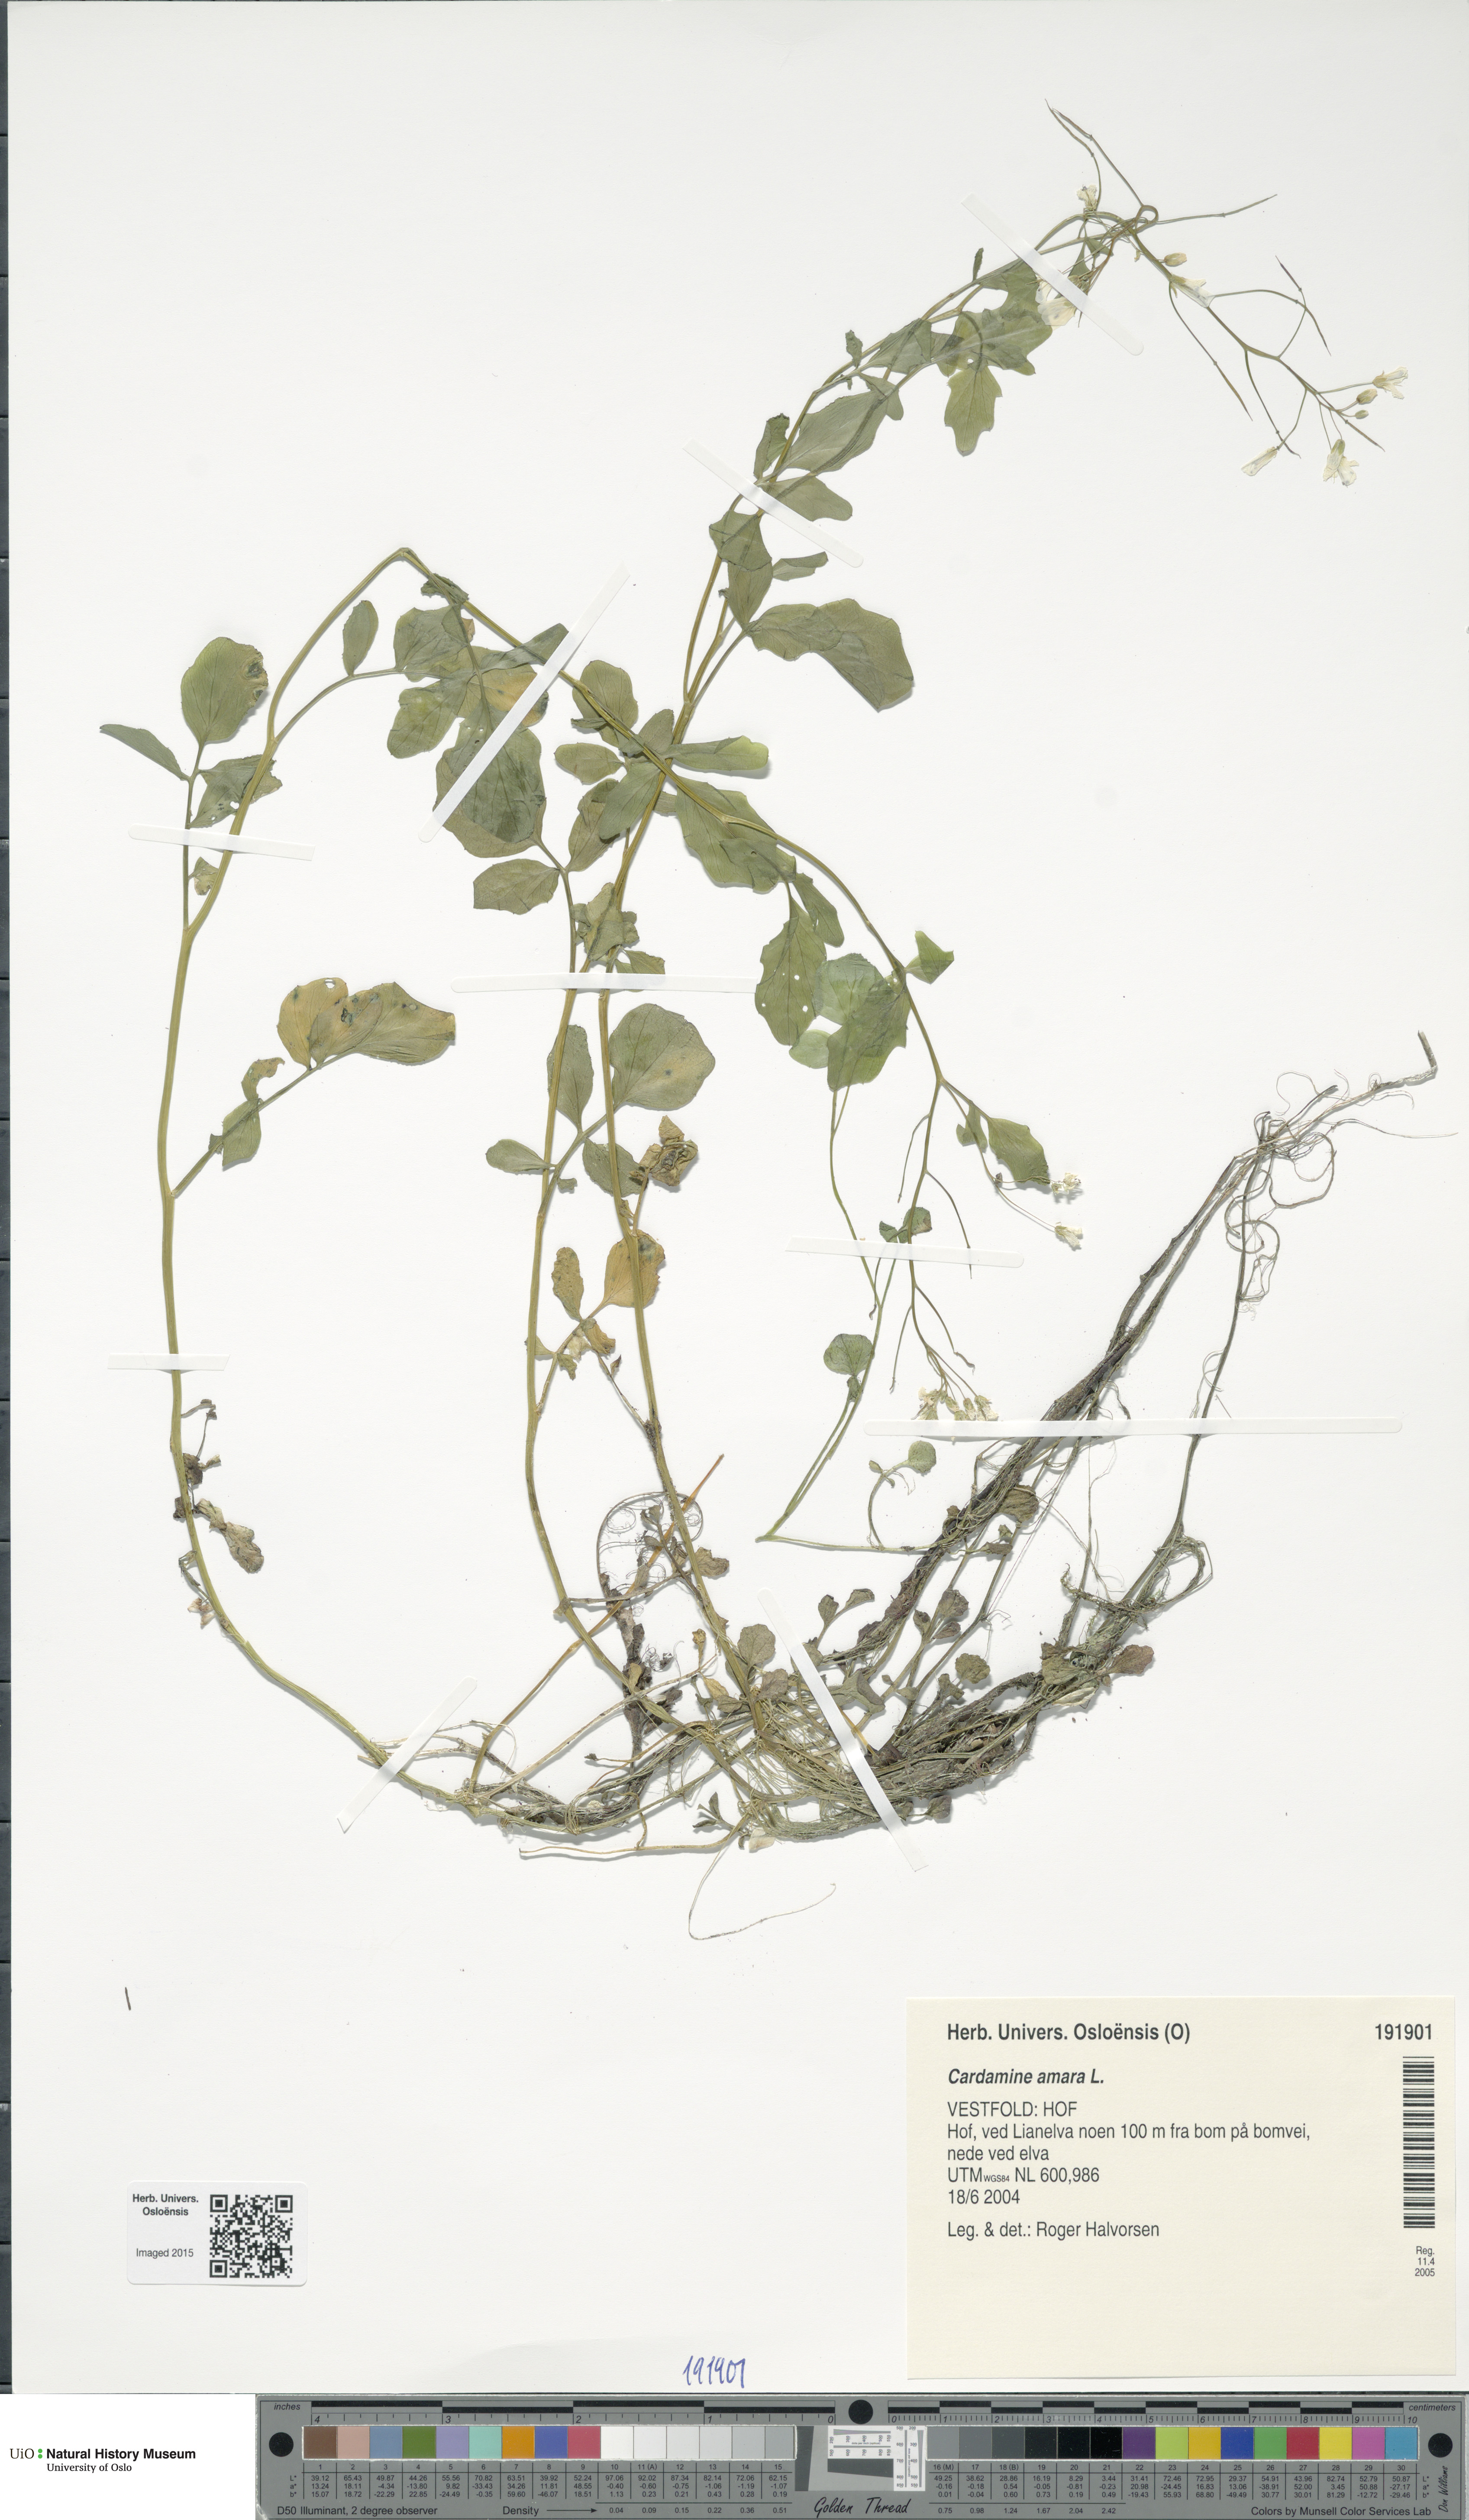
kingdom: Plantae
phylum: Tracheophyta
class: Magnoliopsida
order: Brassicales
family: Brassicaceae
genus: Cardamine
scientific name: Cardamine amara
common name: Large bitter-cress
